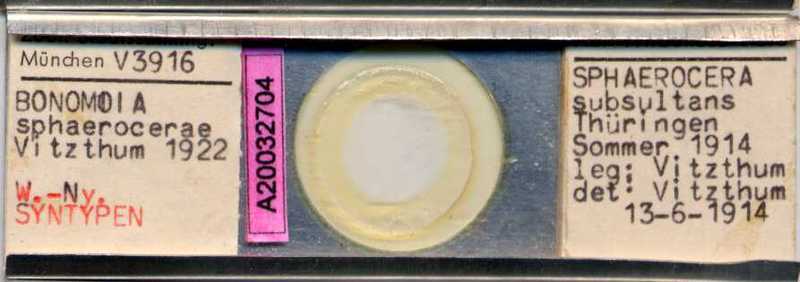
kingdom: Animalia
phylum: Arthropoda
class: Arachnida
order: Sarcoptiformes
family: Histiostomatidae
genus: Capronomoia
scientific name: Capronomoia sphaerocerae
